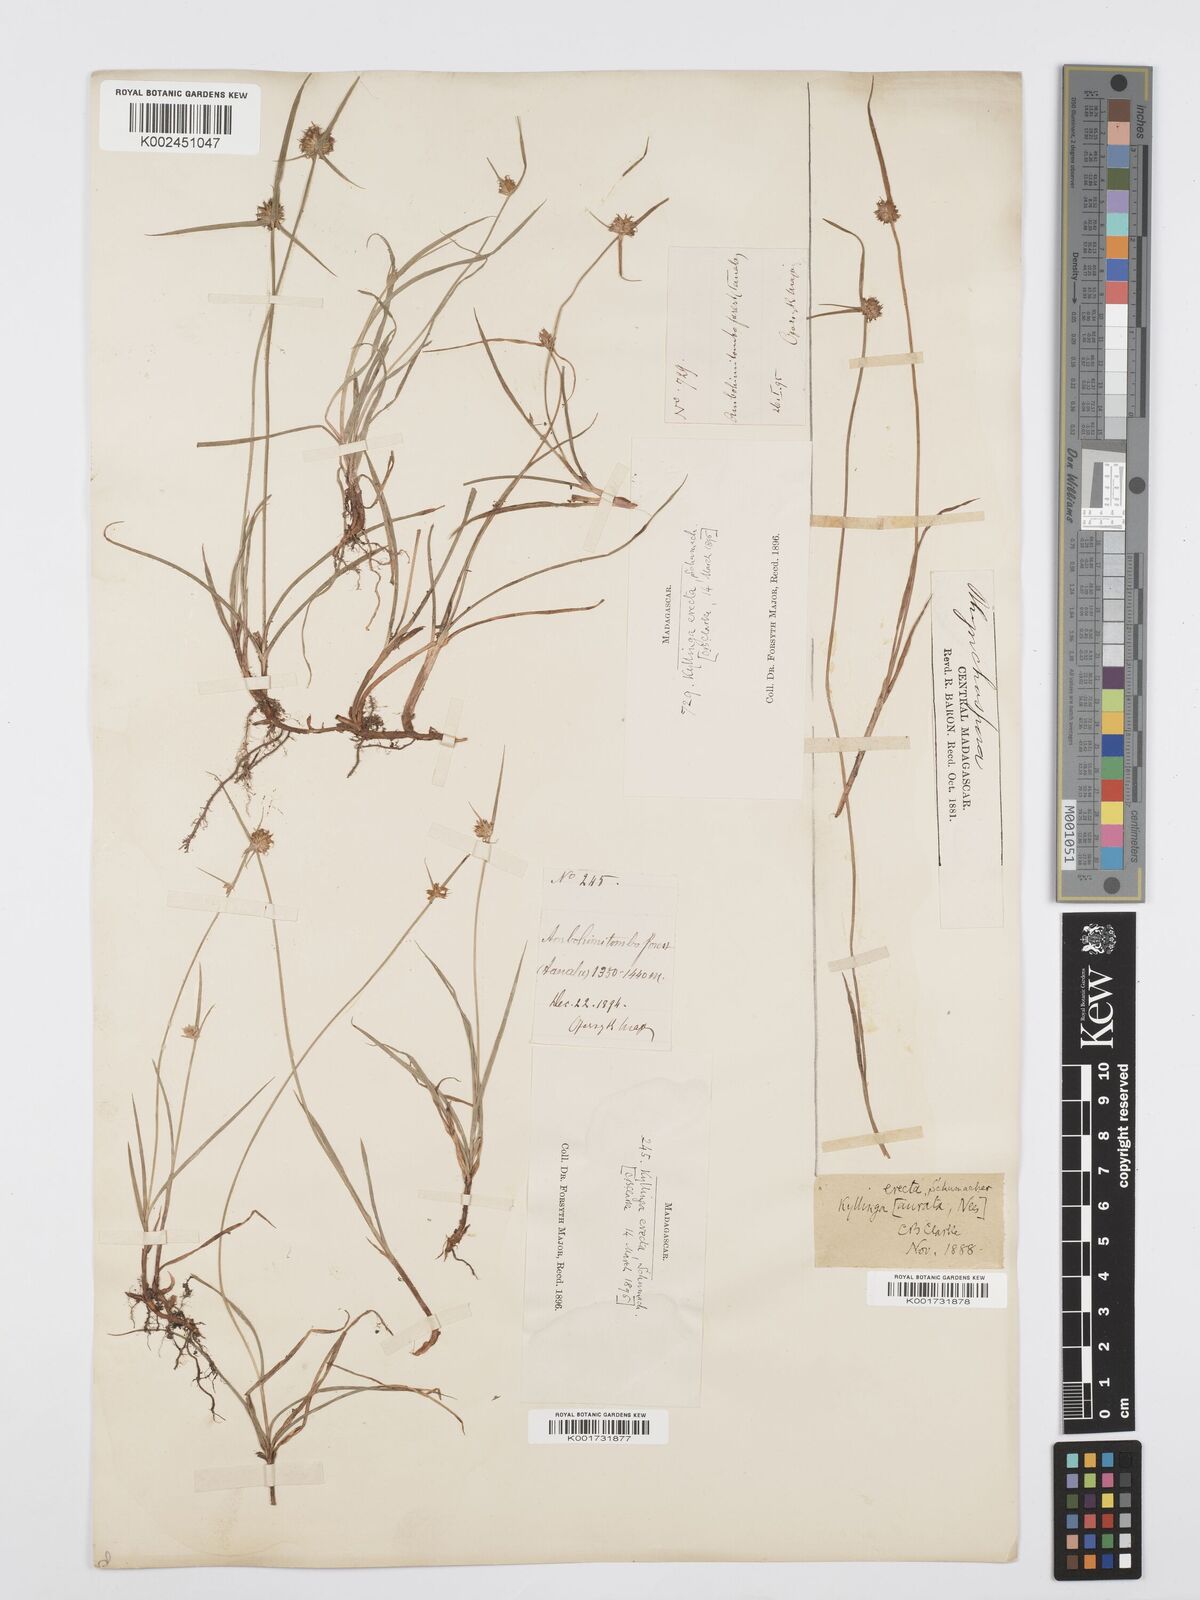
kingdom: Plantae
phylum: Tracheophyta
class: Liliopsida
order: Poales
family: Cyperaceae
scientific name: Cyperaceae
